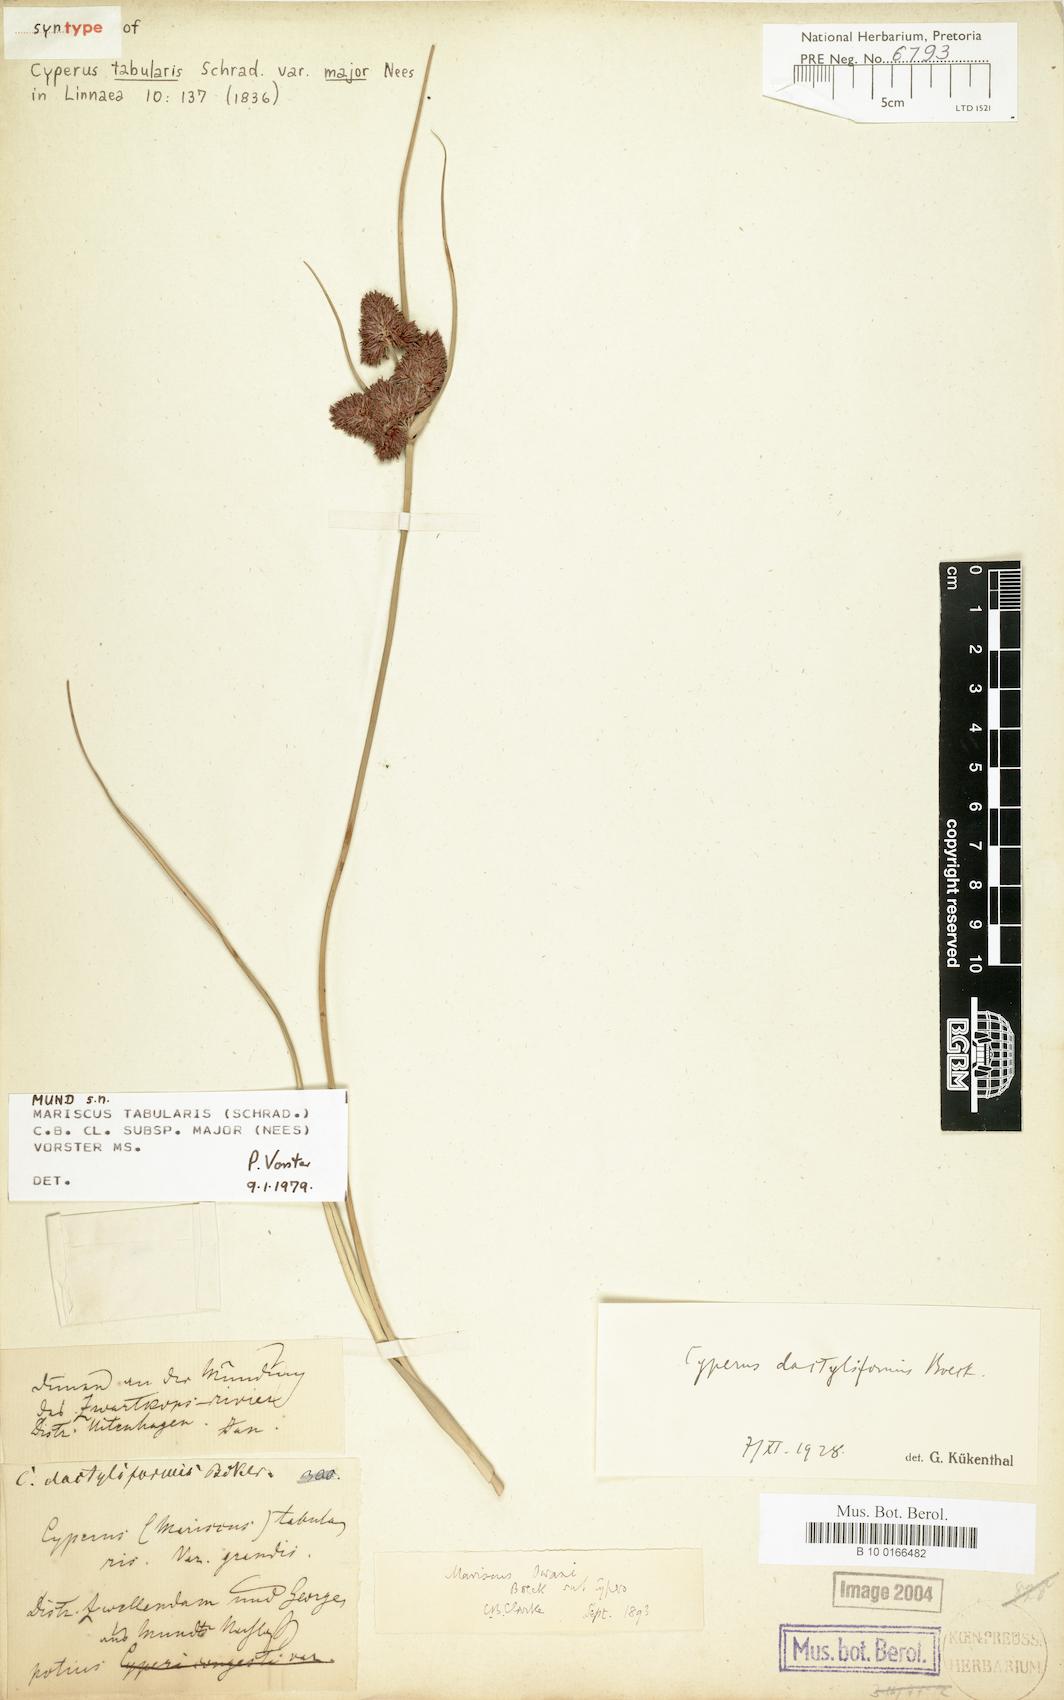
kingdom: Plantae
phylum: Tracheophyta
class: Liliopsida
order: Poales
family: Cyperaceae
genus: Cyperus
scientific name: Cyperus dactyliformis
